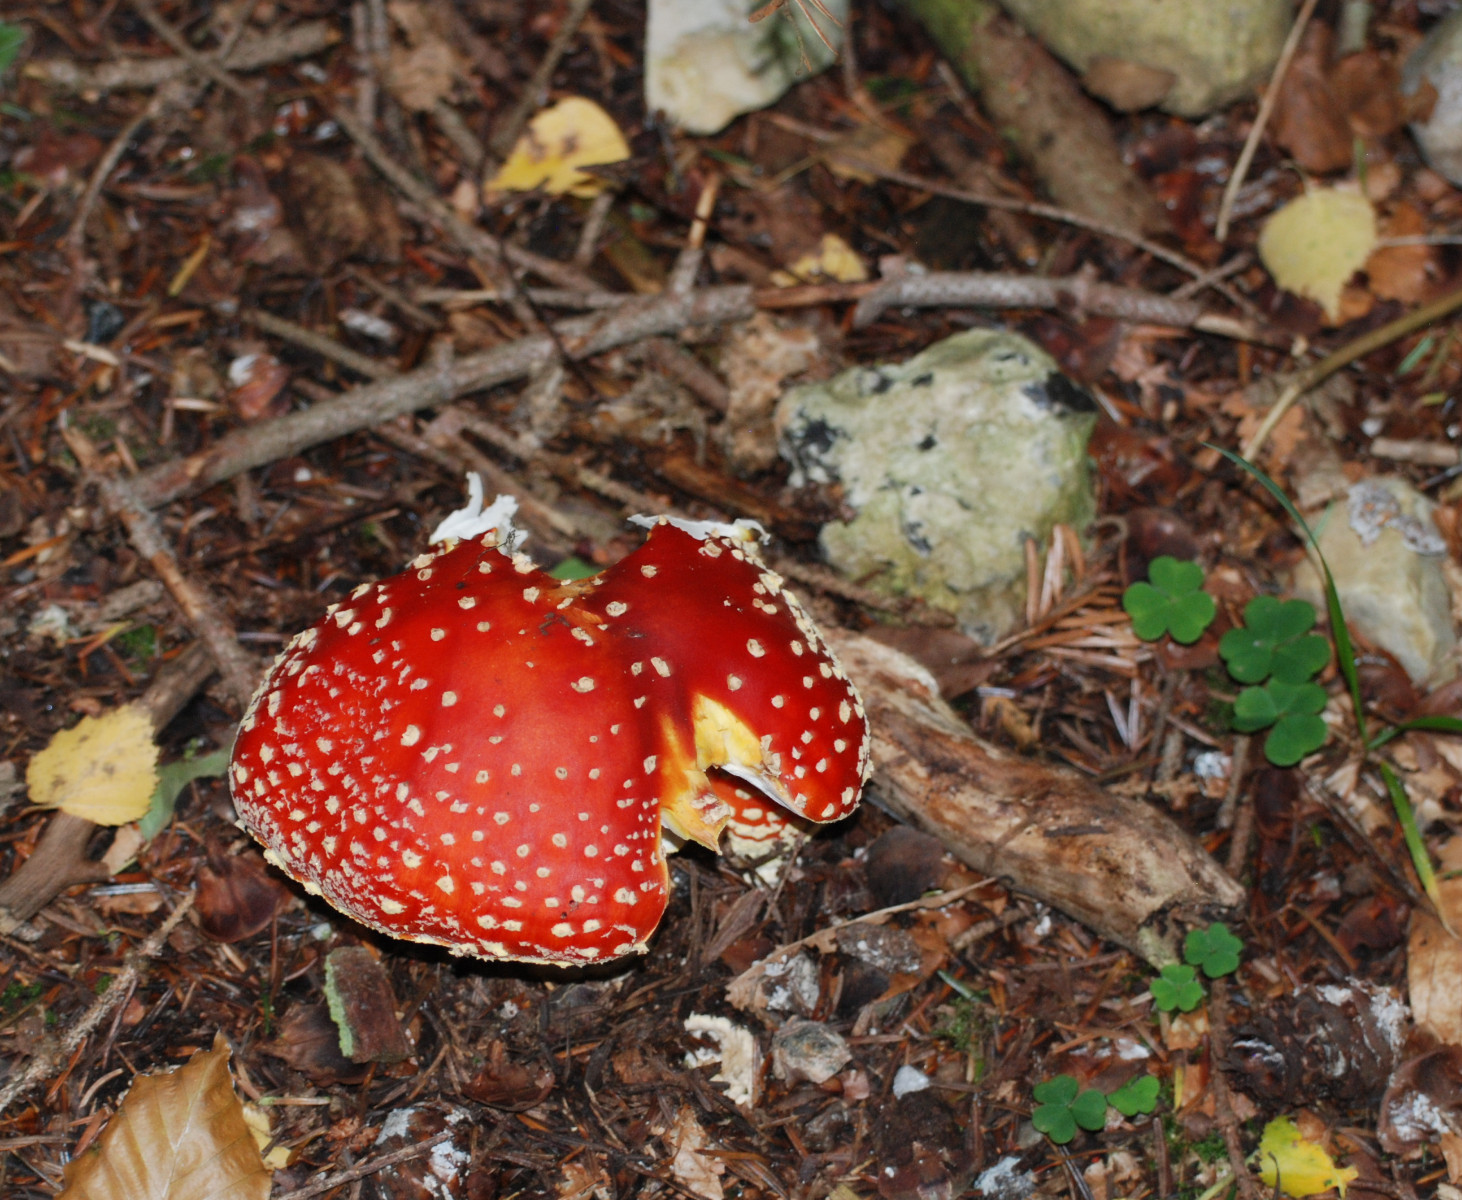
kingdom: Fungi
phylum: Basidiomycota
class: Agaricomycetes
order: Agaricales
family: Amanitaceae
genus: Amanita
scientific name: Amanita muscaria
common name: rød fluesvamp
